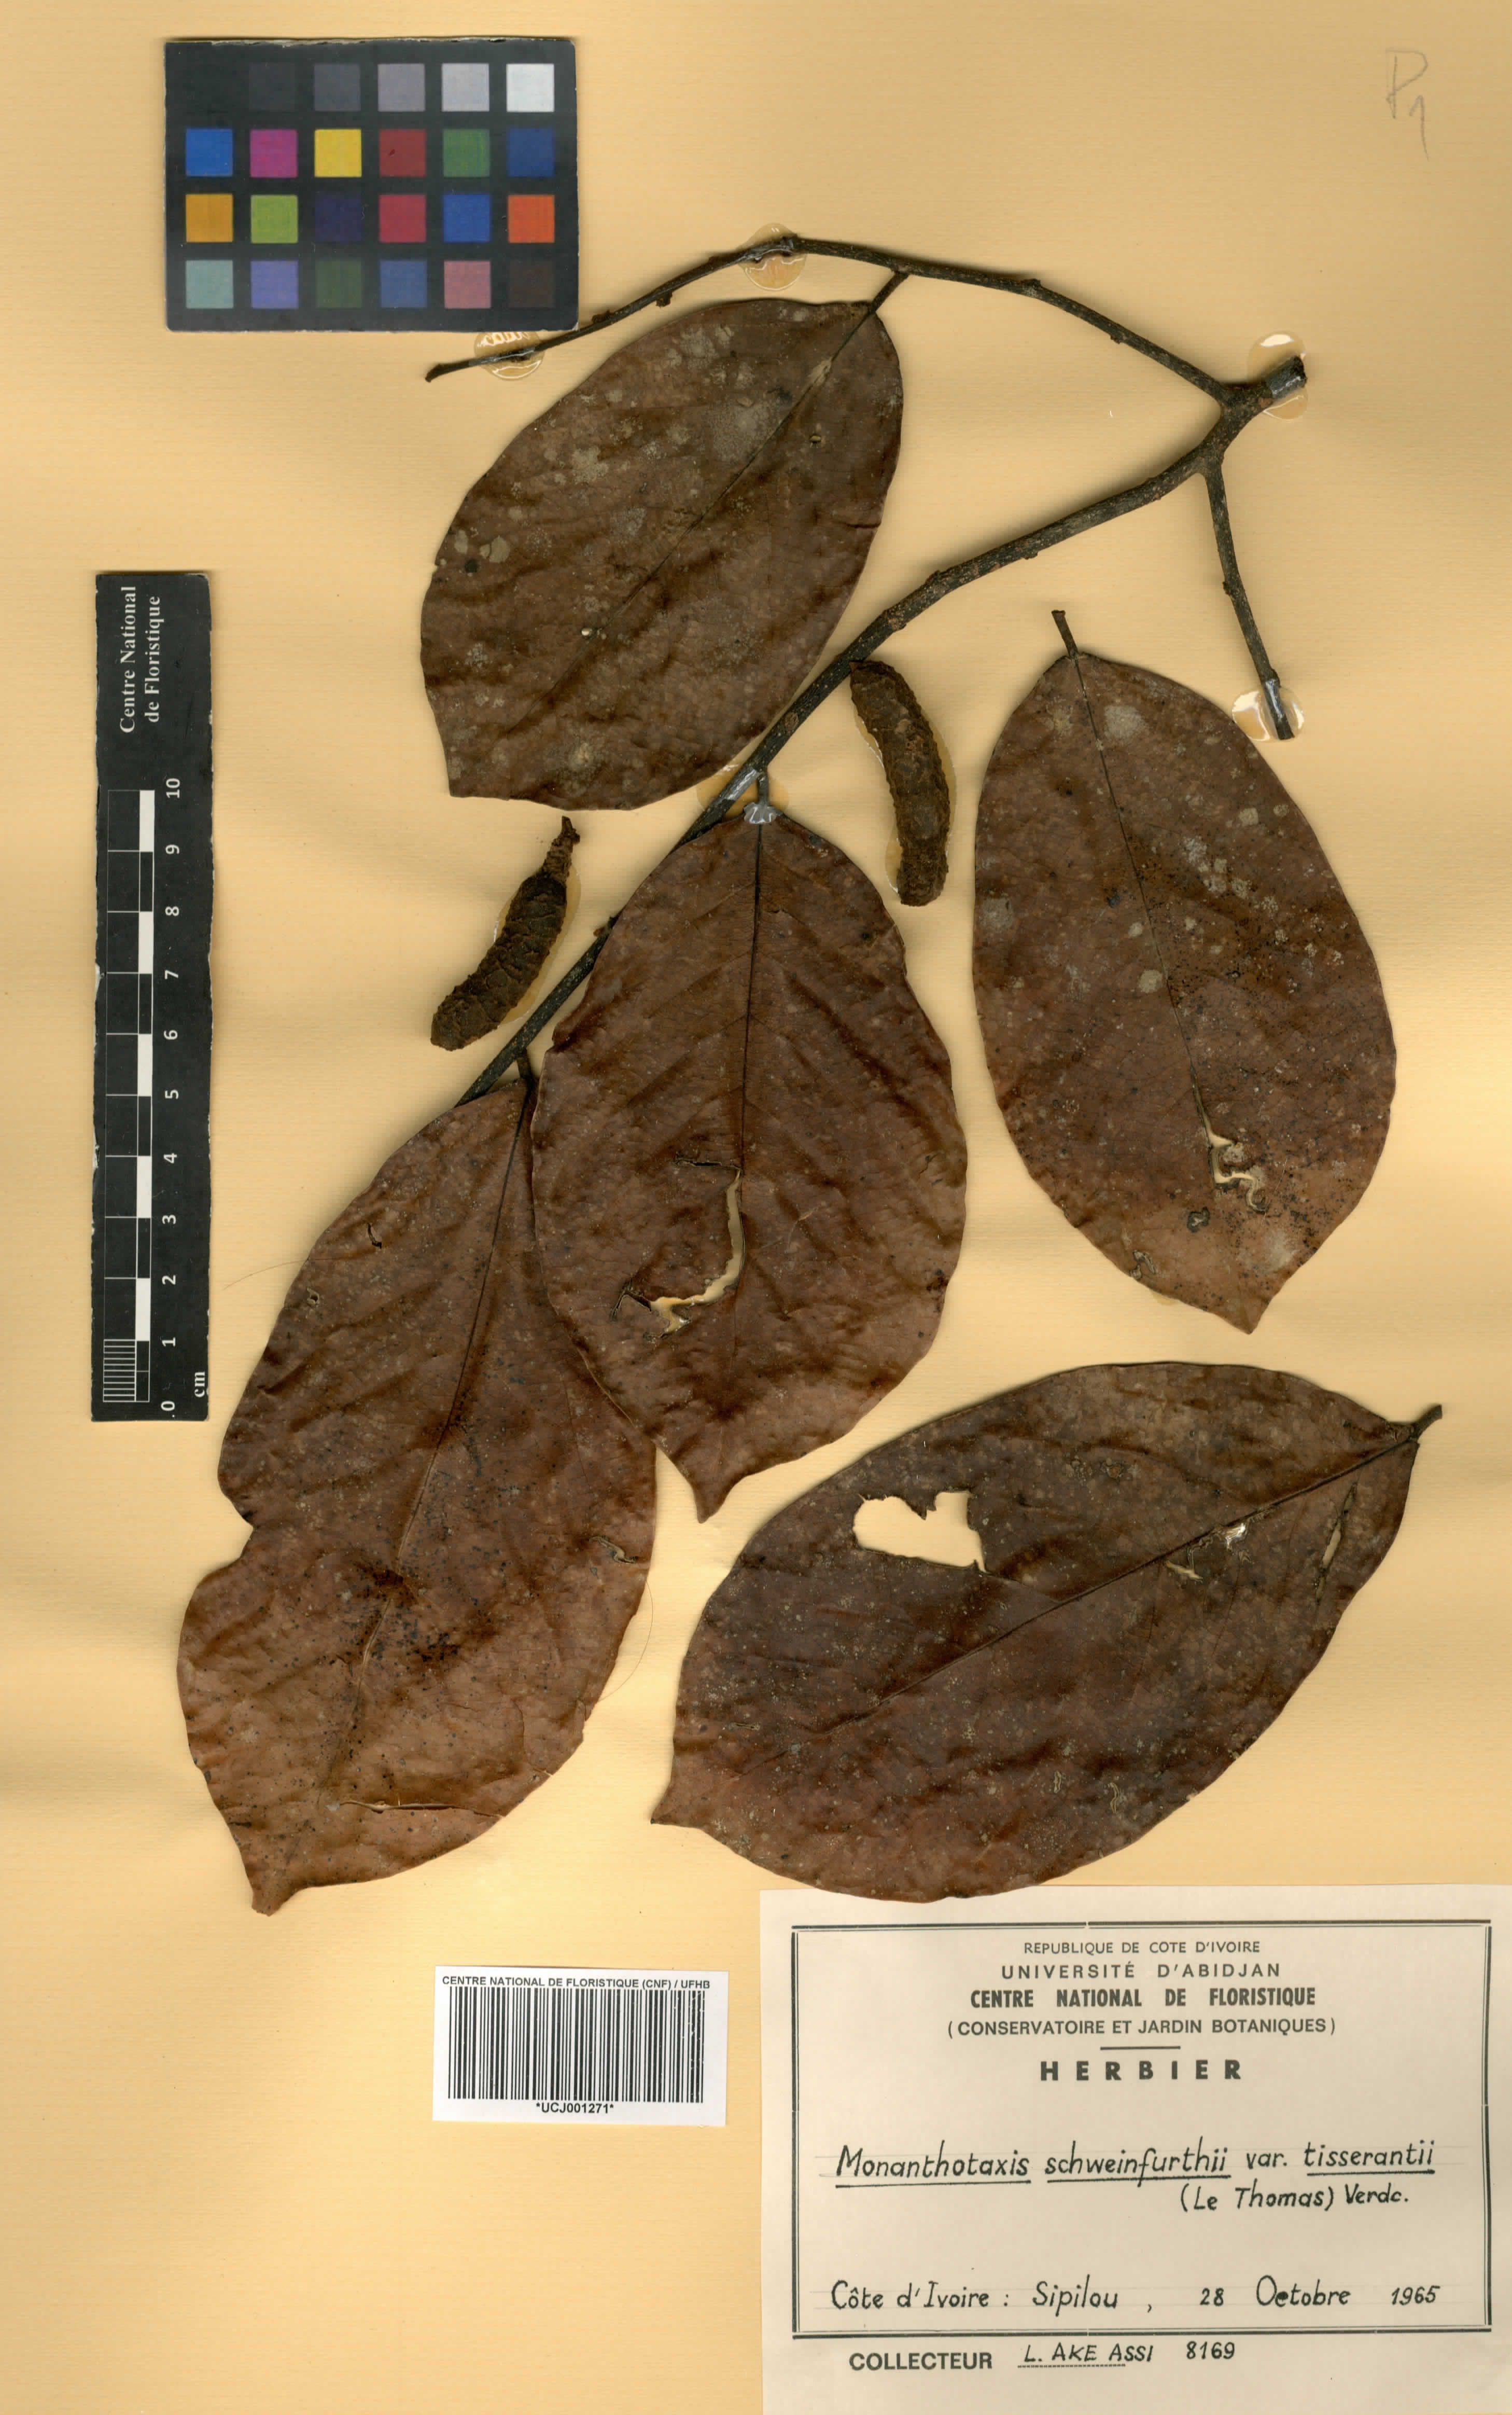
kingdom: Plantae
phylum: Tracheophyta
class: Magnoliopsida
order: Magnoliales
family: Annonaceae
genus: Monanthotaxis
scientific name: Monanthotaxis schweinfurthii
